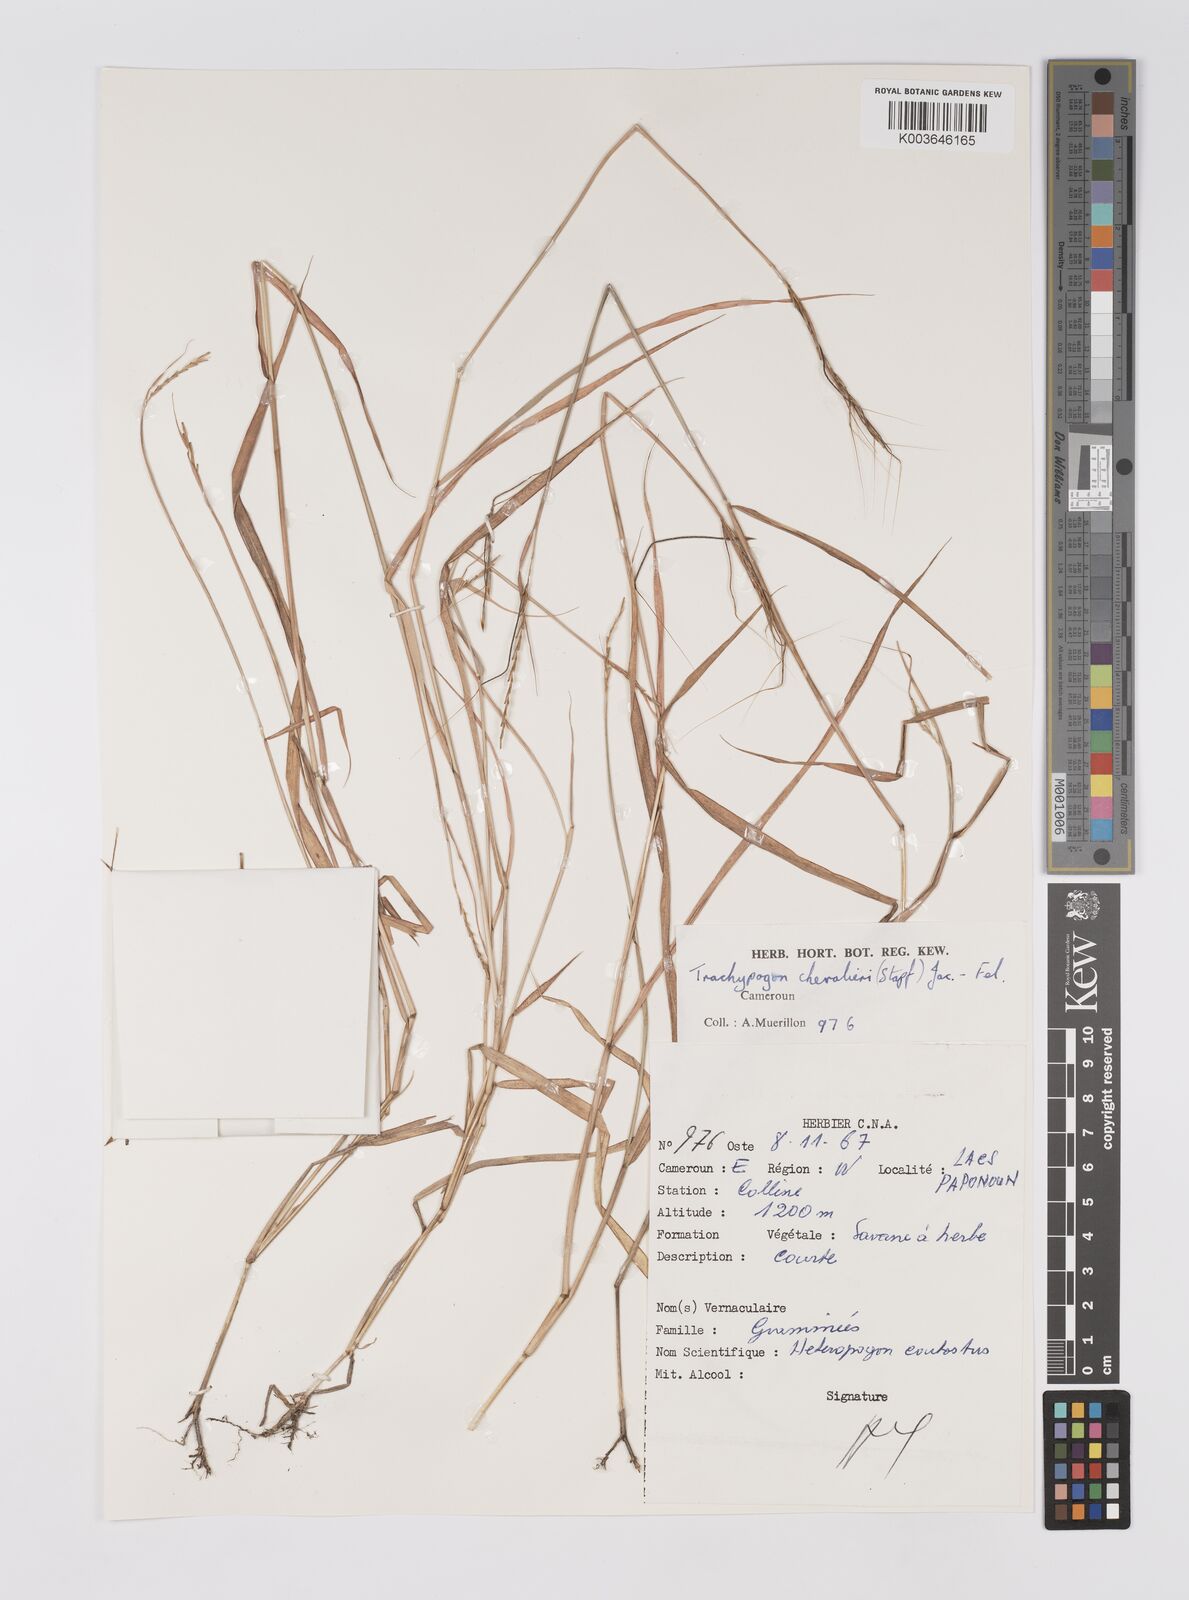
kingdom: Plantae
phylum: Tracheophyta
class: Liliopsida
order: Poales
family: Poaceae
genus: Trachypogon
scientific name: Trachypogon chevalieri
